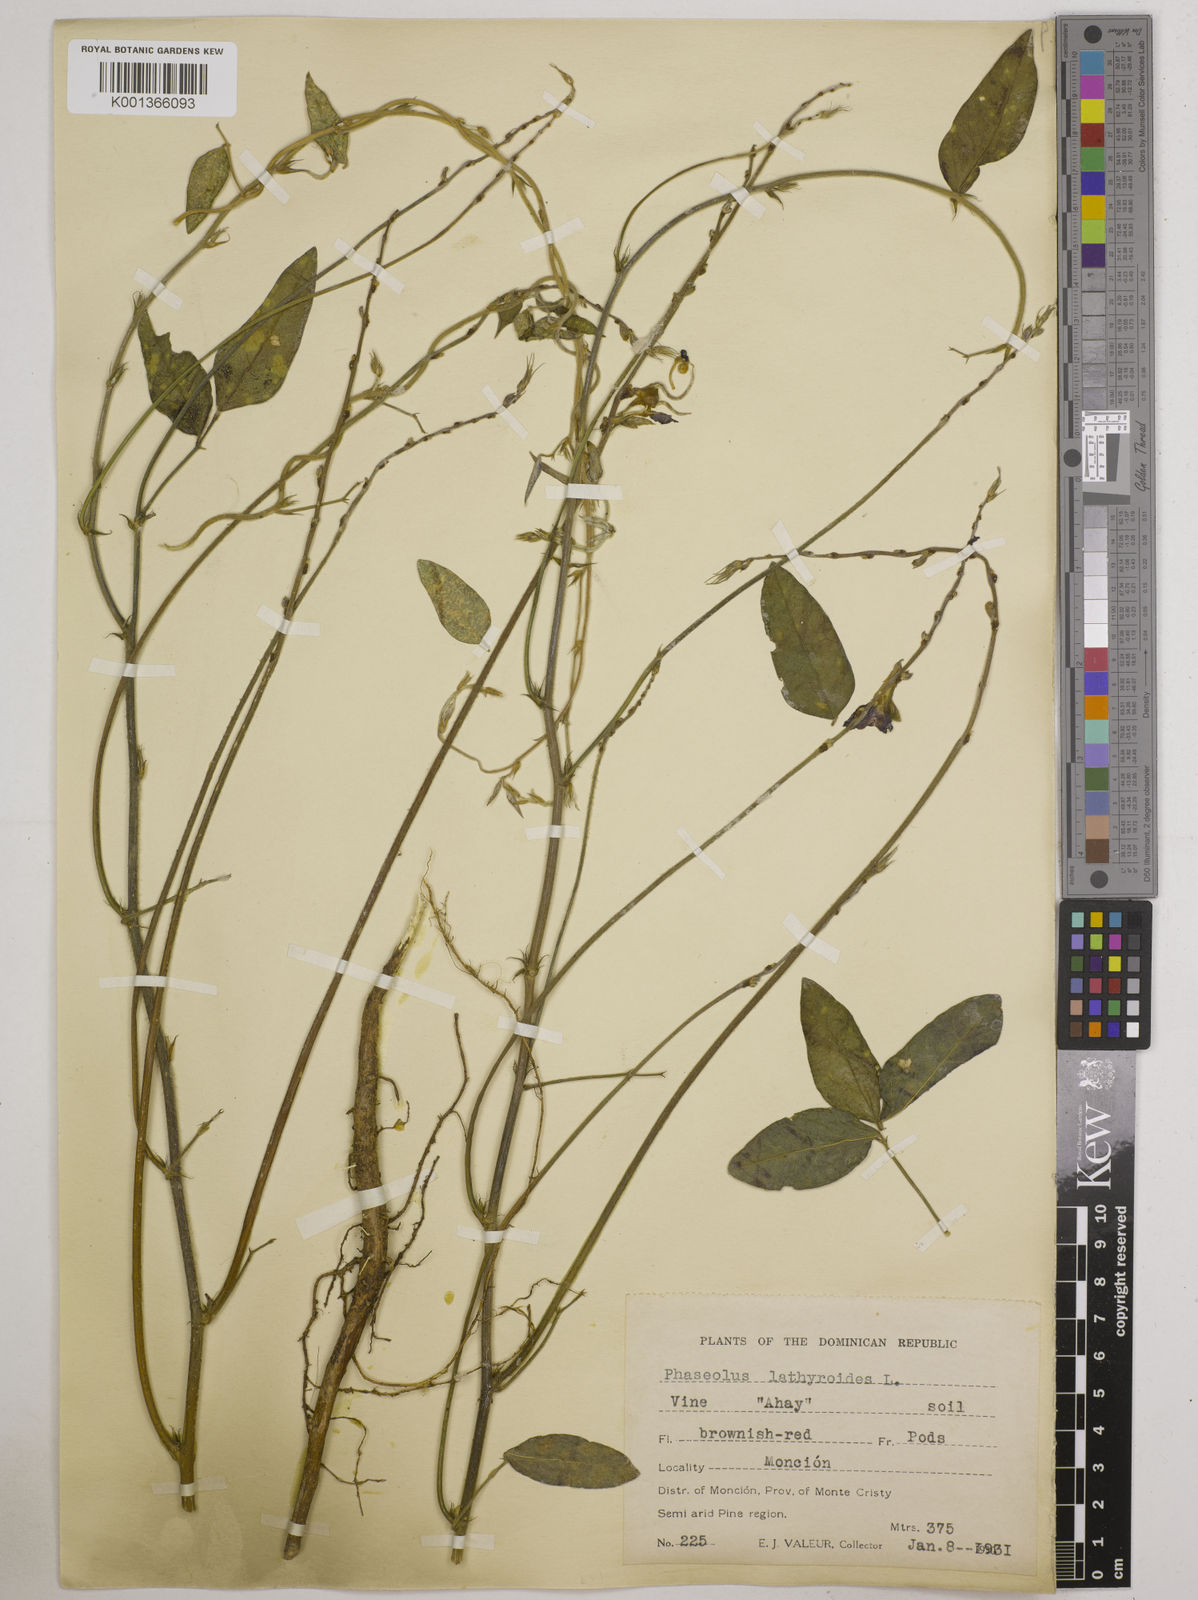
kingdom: Plantae
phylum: Tracheophyta
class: Magnoliopsida
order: Fabales
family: Fabaceae
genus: Macroptilium
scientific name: Macroptilium lathyroides
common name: Wild bushbean
